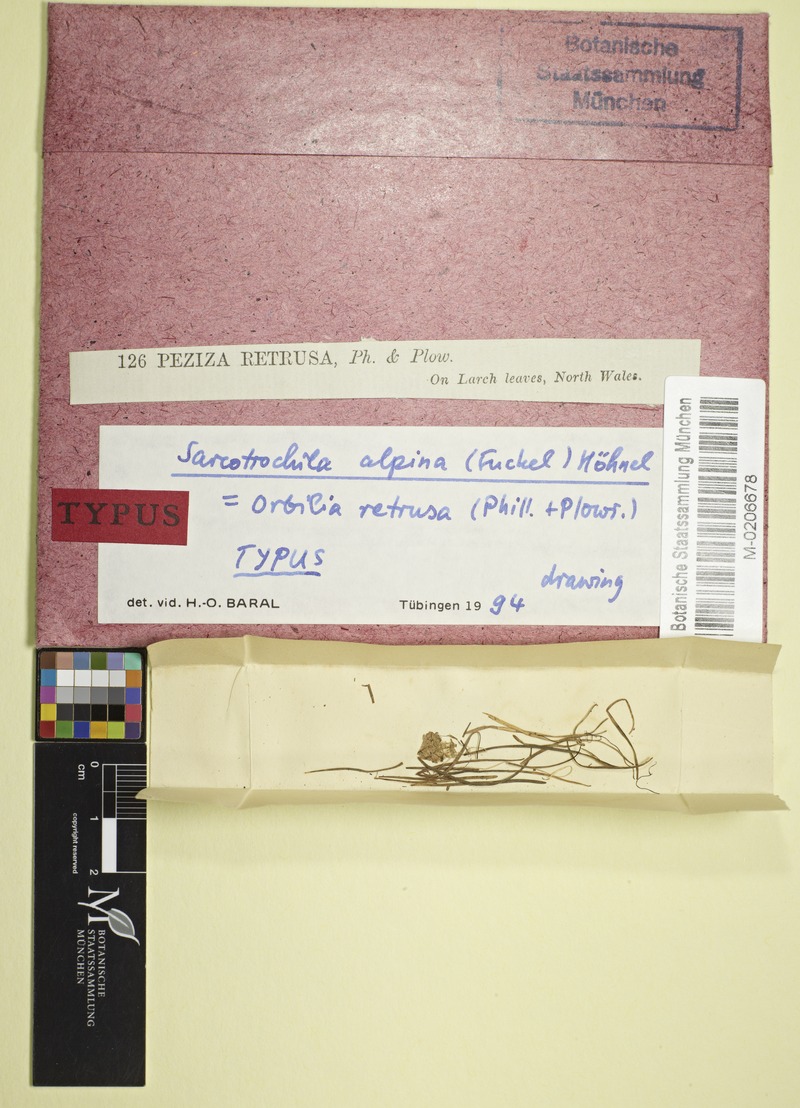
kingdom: Fungi
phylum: Ascomycota
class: Leotiomycetes
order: Helotiales
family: Cenangiaceae
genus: Sarcotrochila
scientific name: Sarcotrochila alpina
